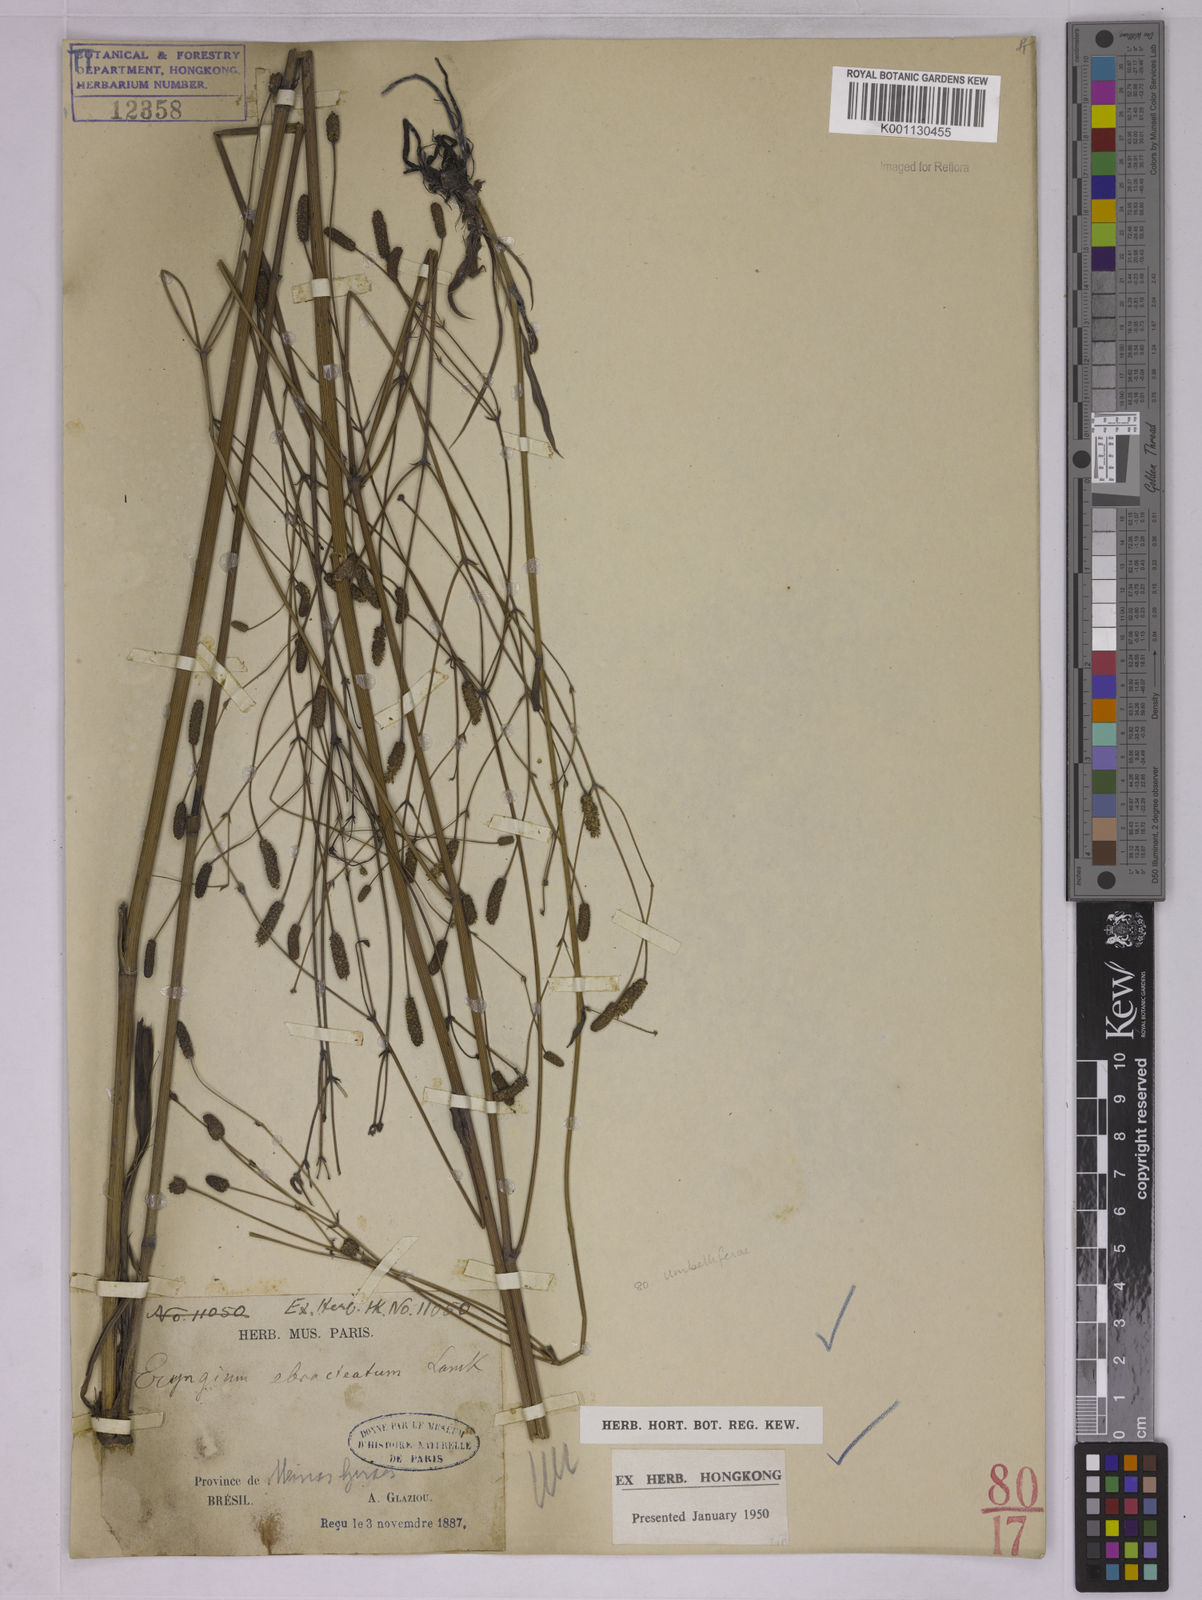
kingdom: Plantae
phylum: Tracheophyta
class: Magnoliopsida
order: Apiales
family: Apiaceae
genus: Eryngium
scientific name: Eryngium ebracteatum
